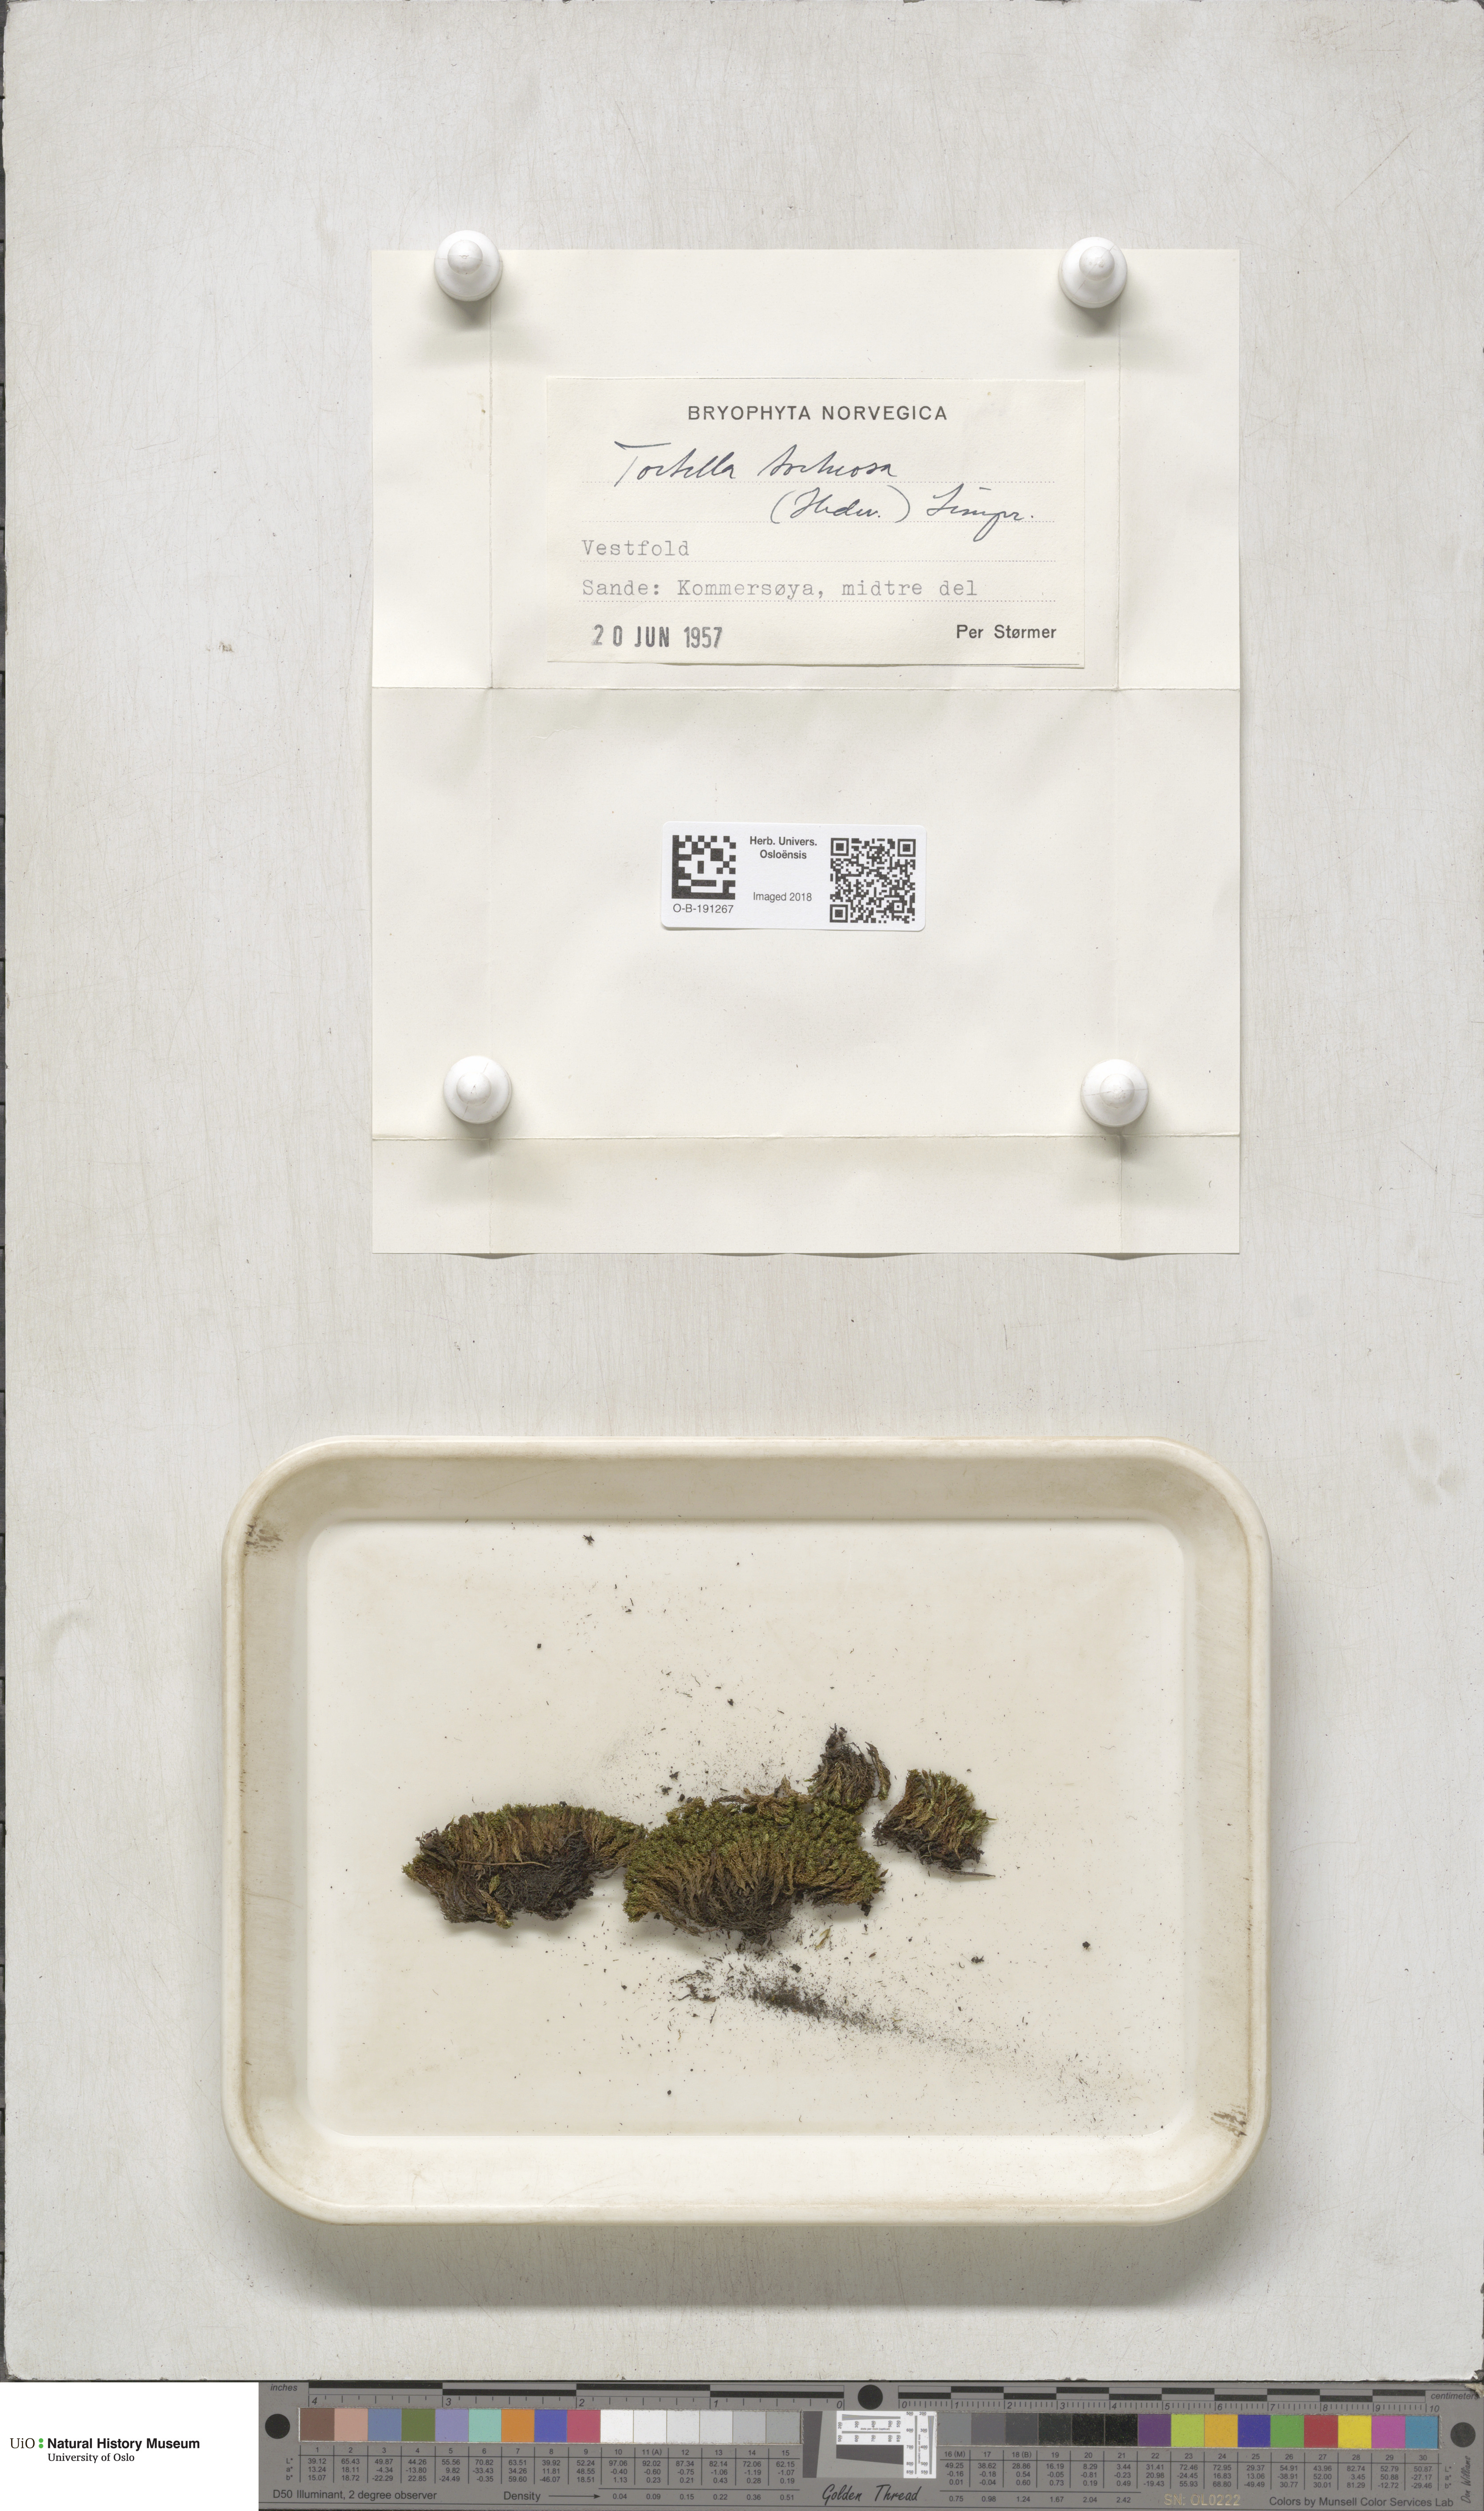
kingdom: Plantae
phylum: Bryophyta
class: Bryopsida
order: Pottiales
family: Pottiaceae
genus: Tortella
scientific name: Tortella tortuosa
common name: Frizzled crisp moss
